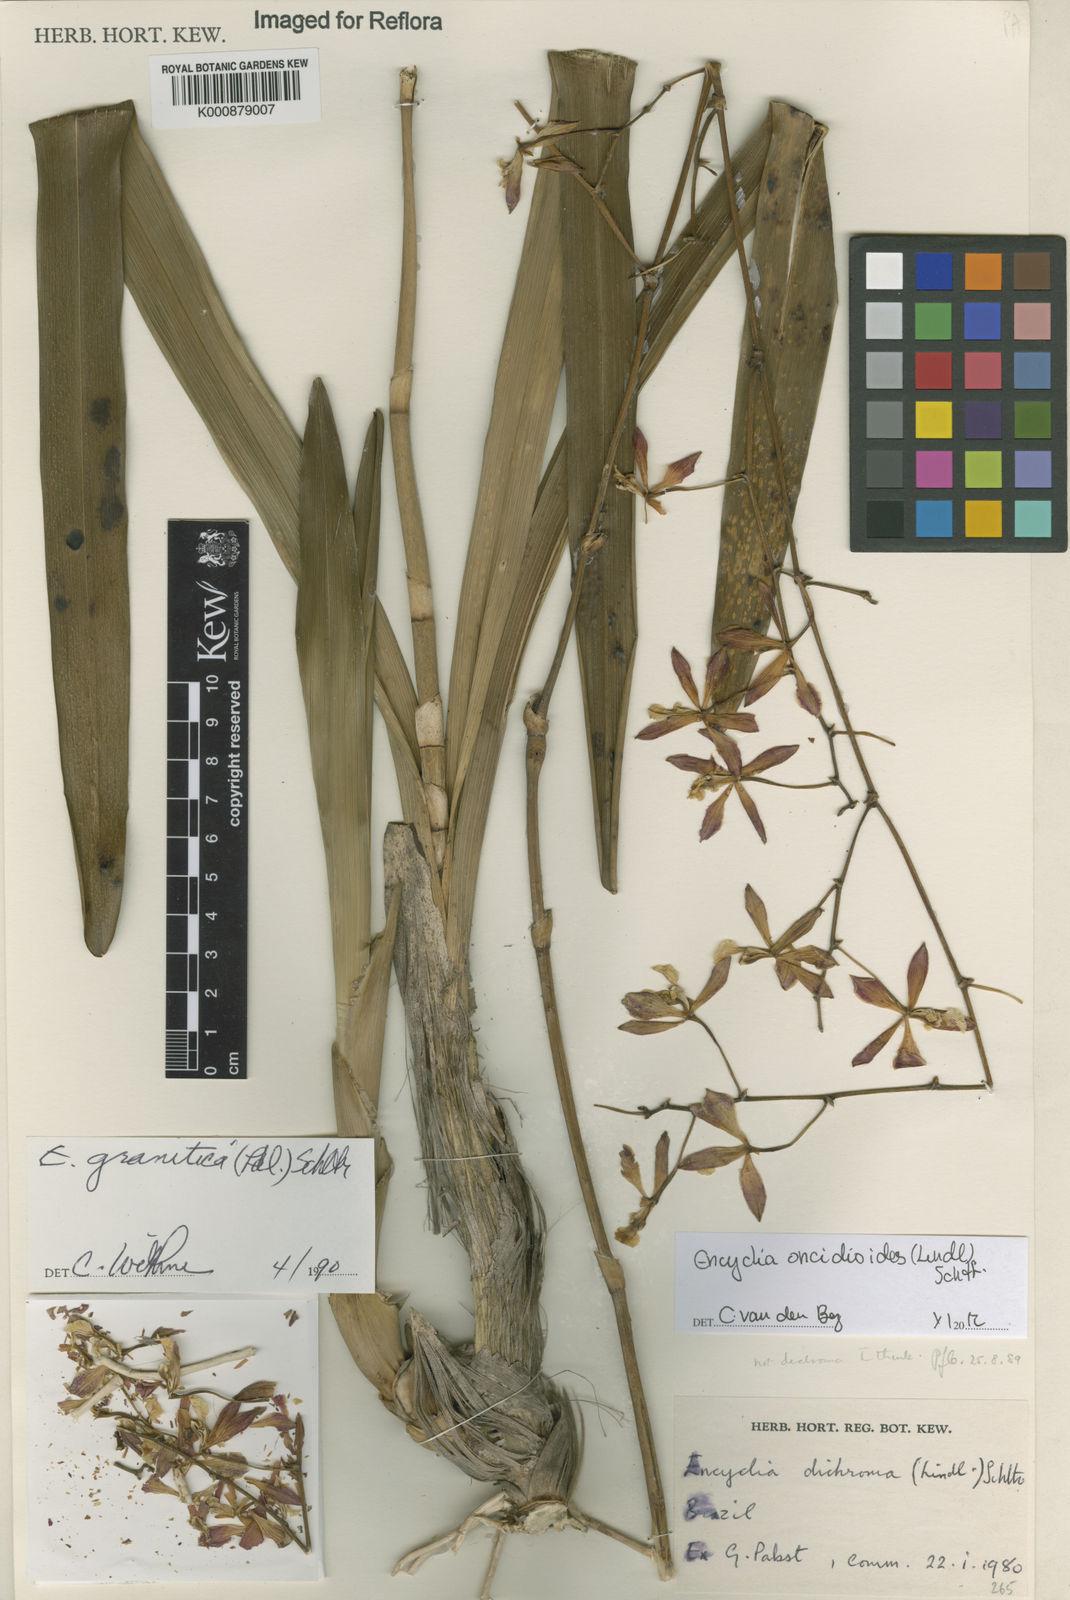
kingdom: Plantae
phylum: Tracheophyta
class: Liliopsida
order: Asparagales
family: Orchidaceae
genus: Encyclia
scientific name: Encyclia oncidioides
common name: Heavyfruit butterfly orchid
